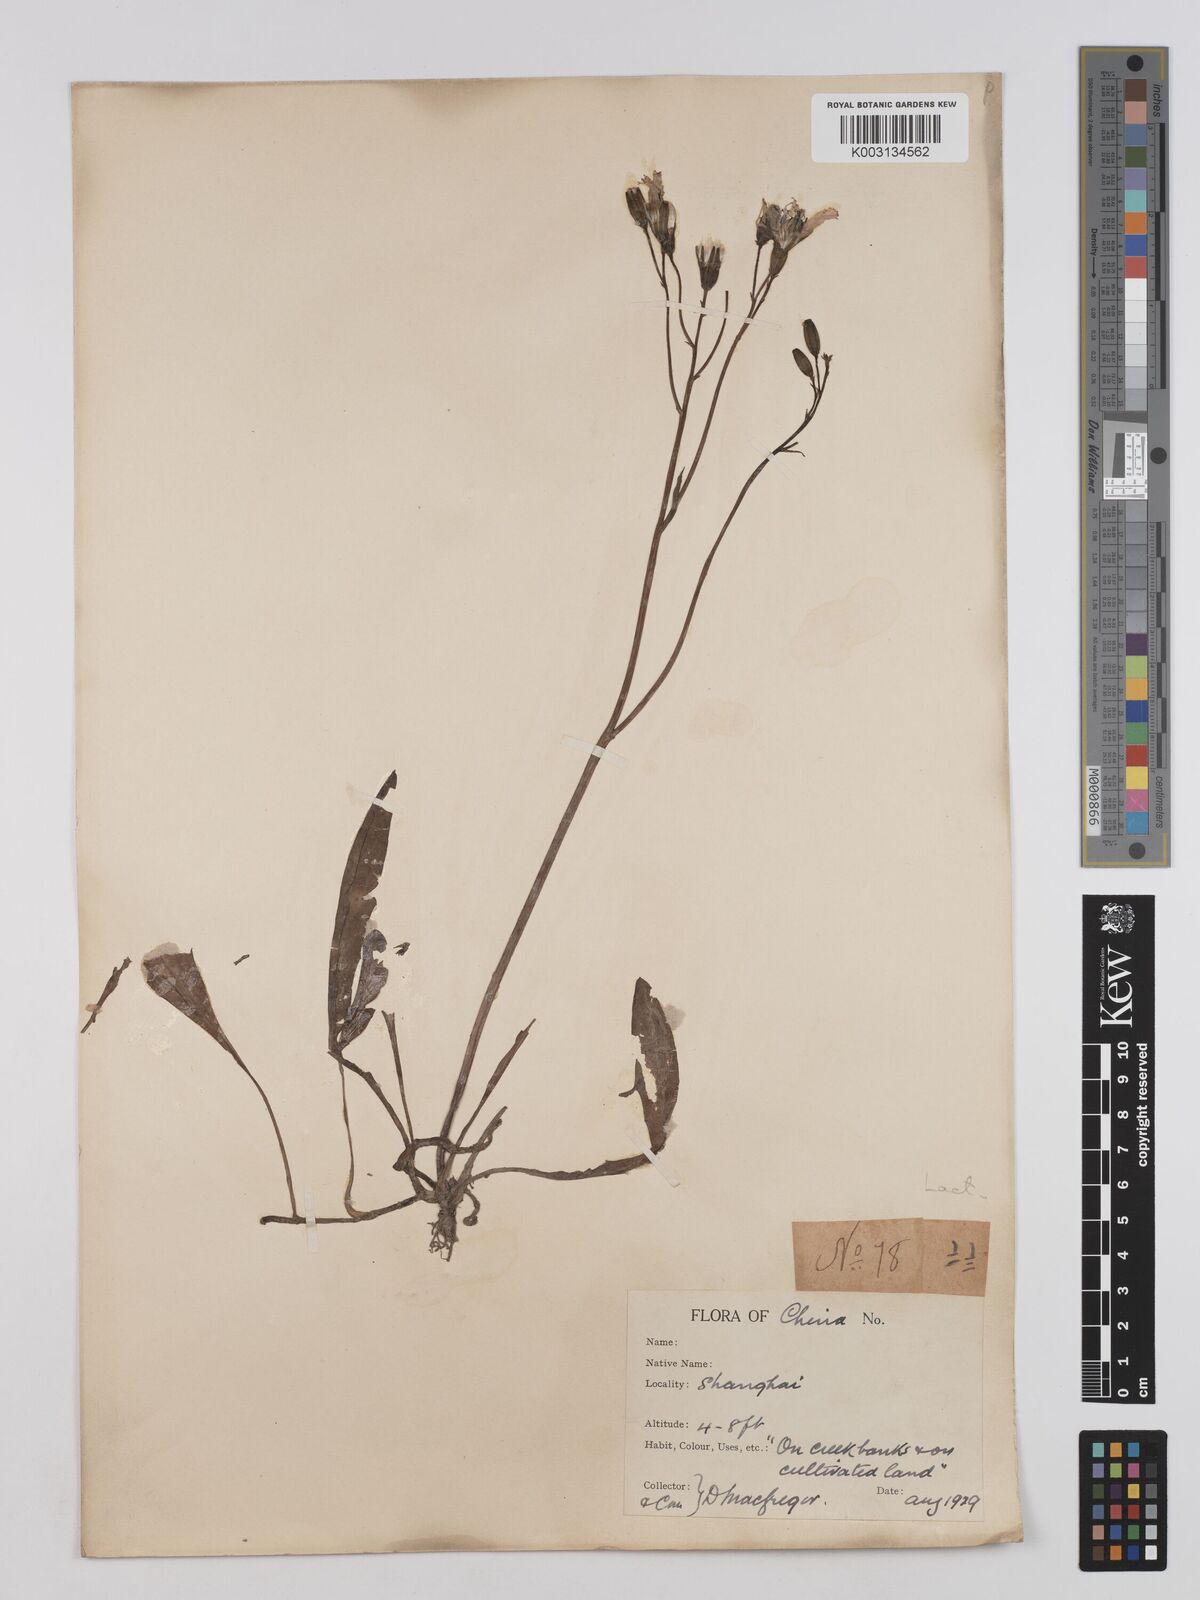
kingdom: Plantae
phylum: Tracheophyta
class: Magnoliopsida
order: Asterales
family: Asteraceae
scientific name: Asteraceae
